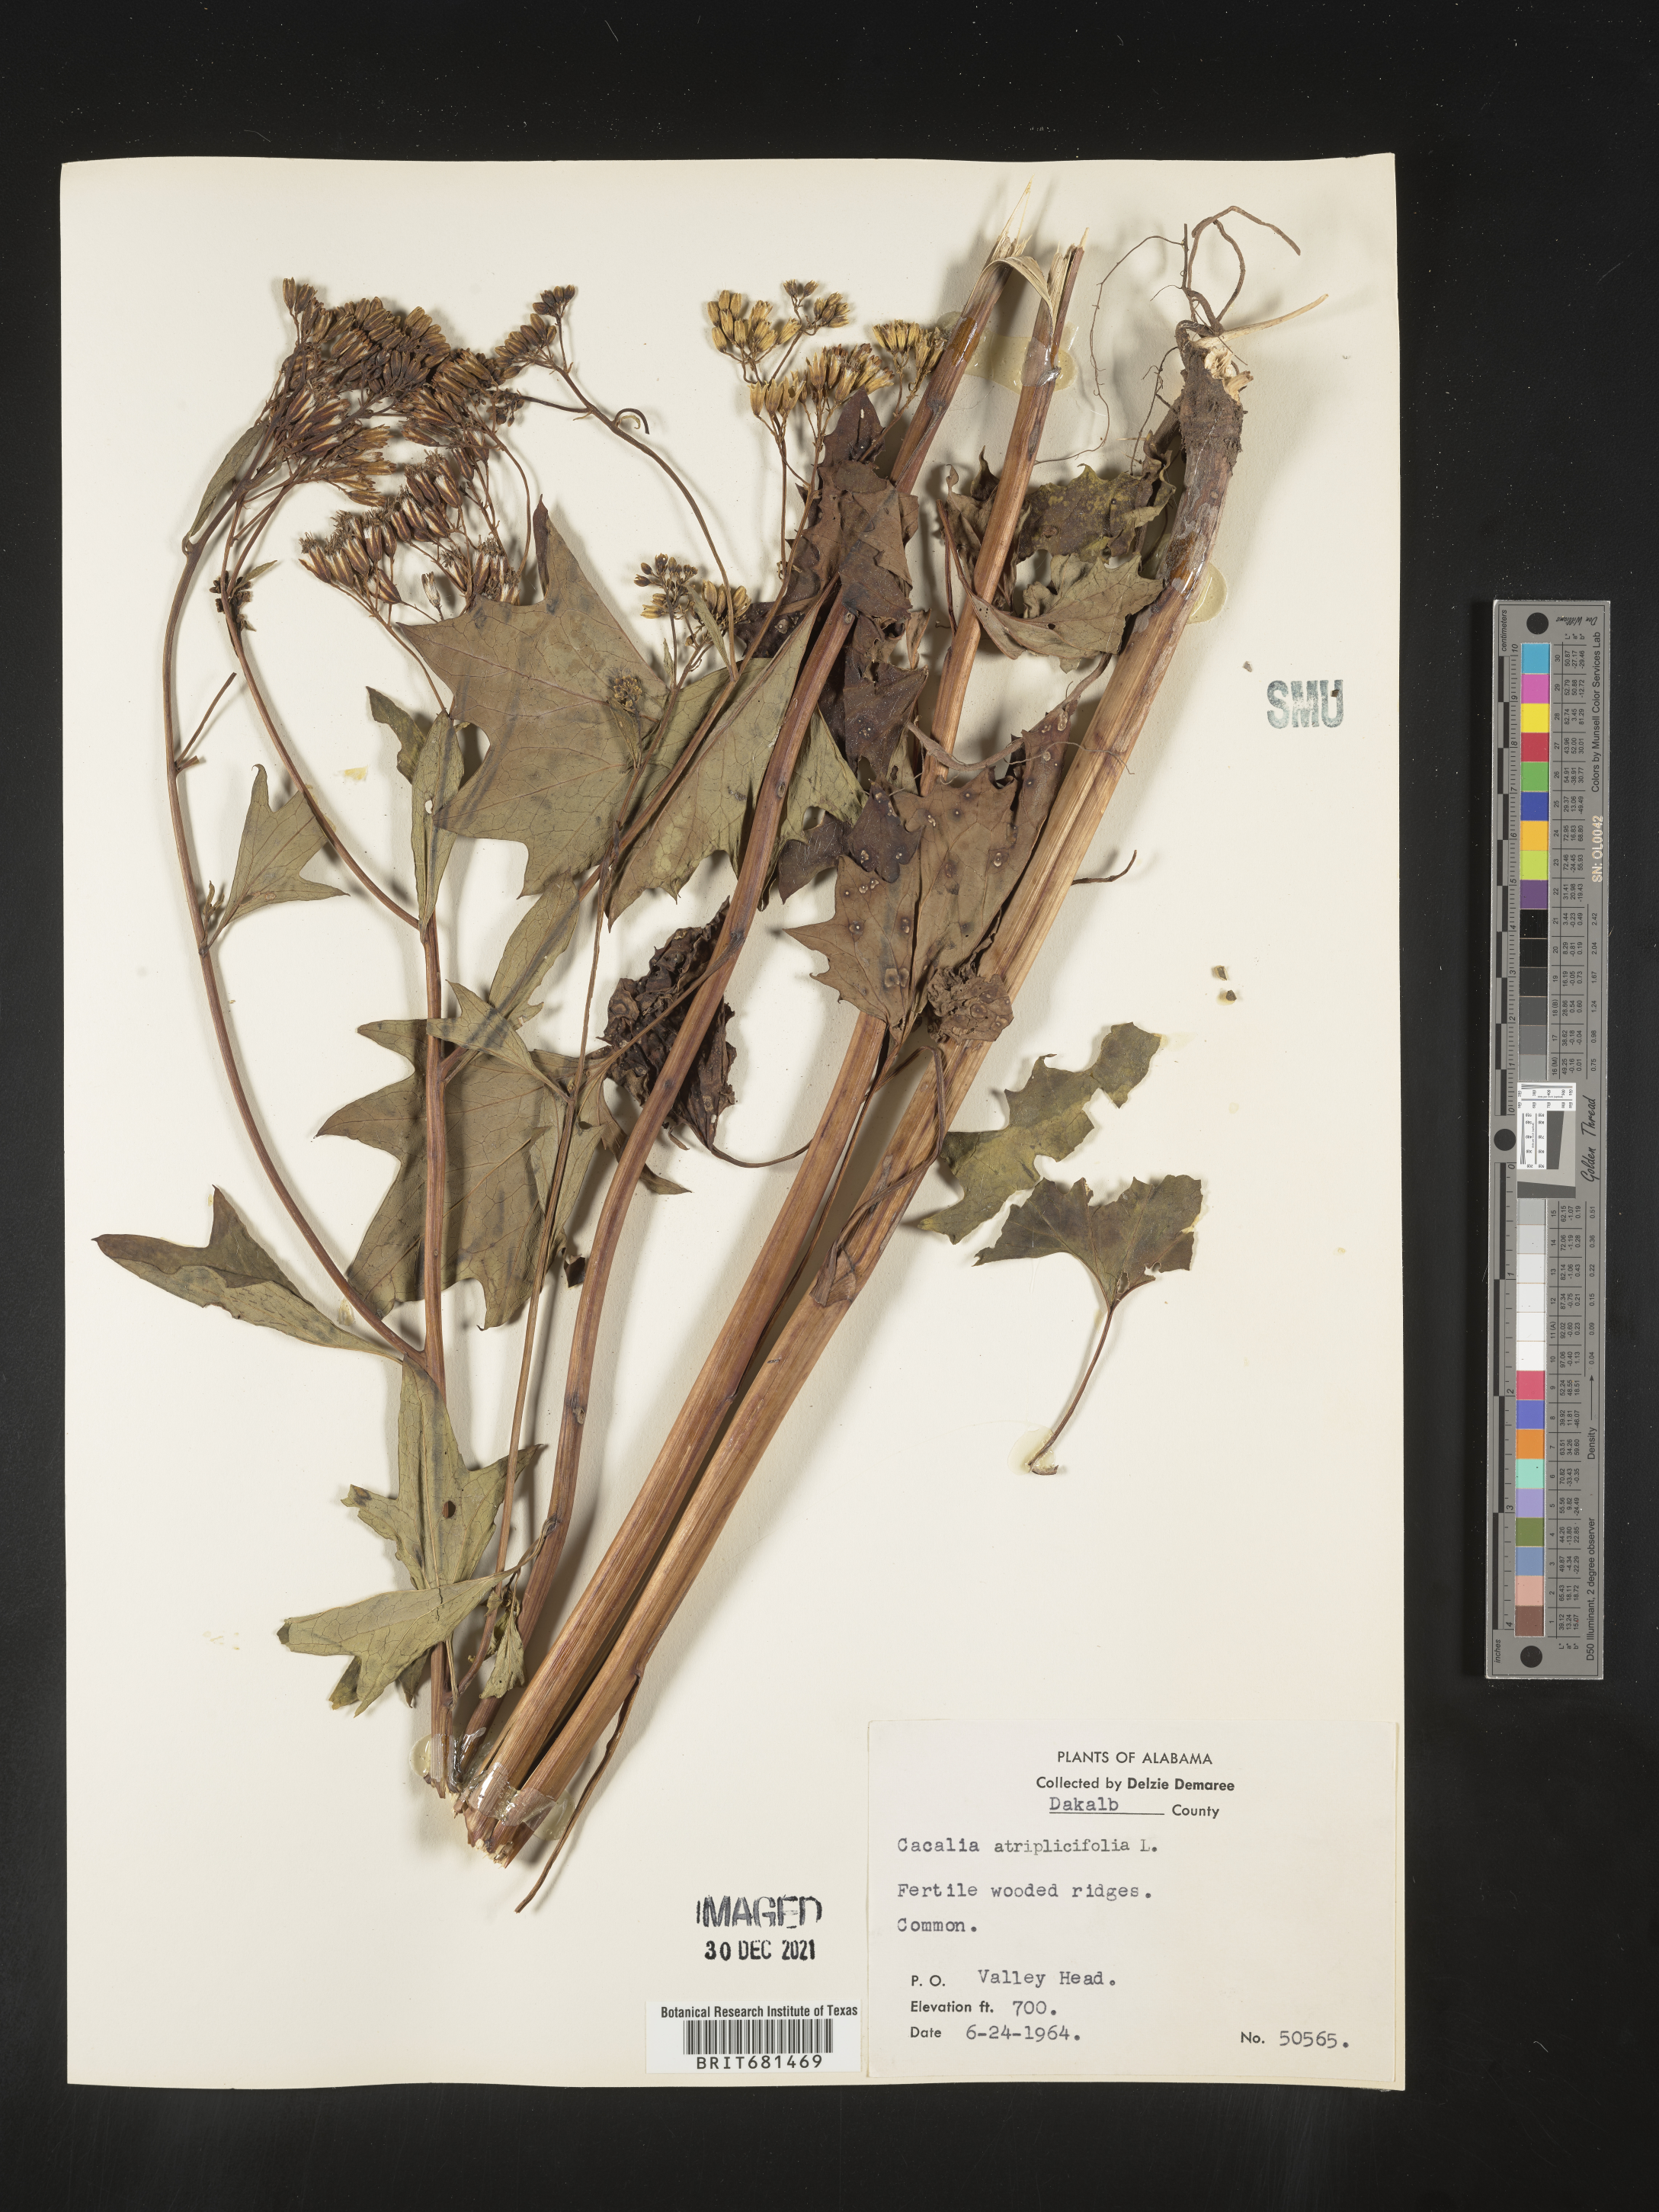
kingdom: Plantae
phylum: Tracheophyta
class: Magnoliopsida
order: Asterales
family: Asteraceae
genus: Arnoglossum
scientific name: Arnoglossum atriplicifolium
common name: Pale indian-plantain
